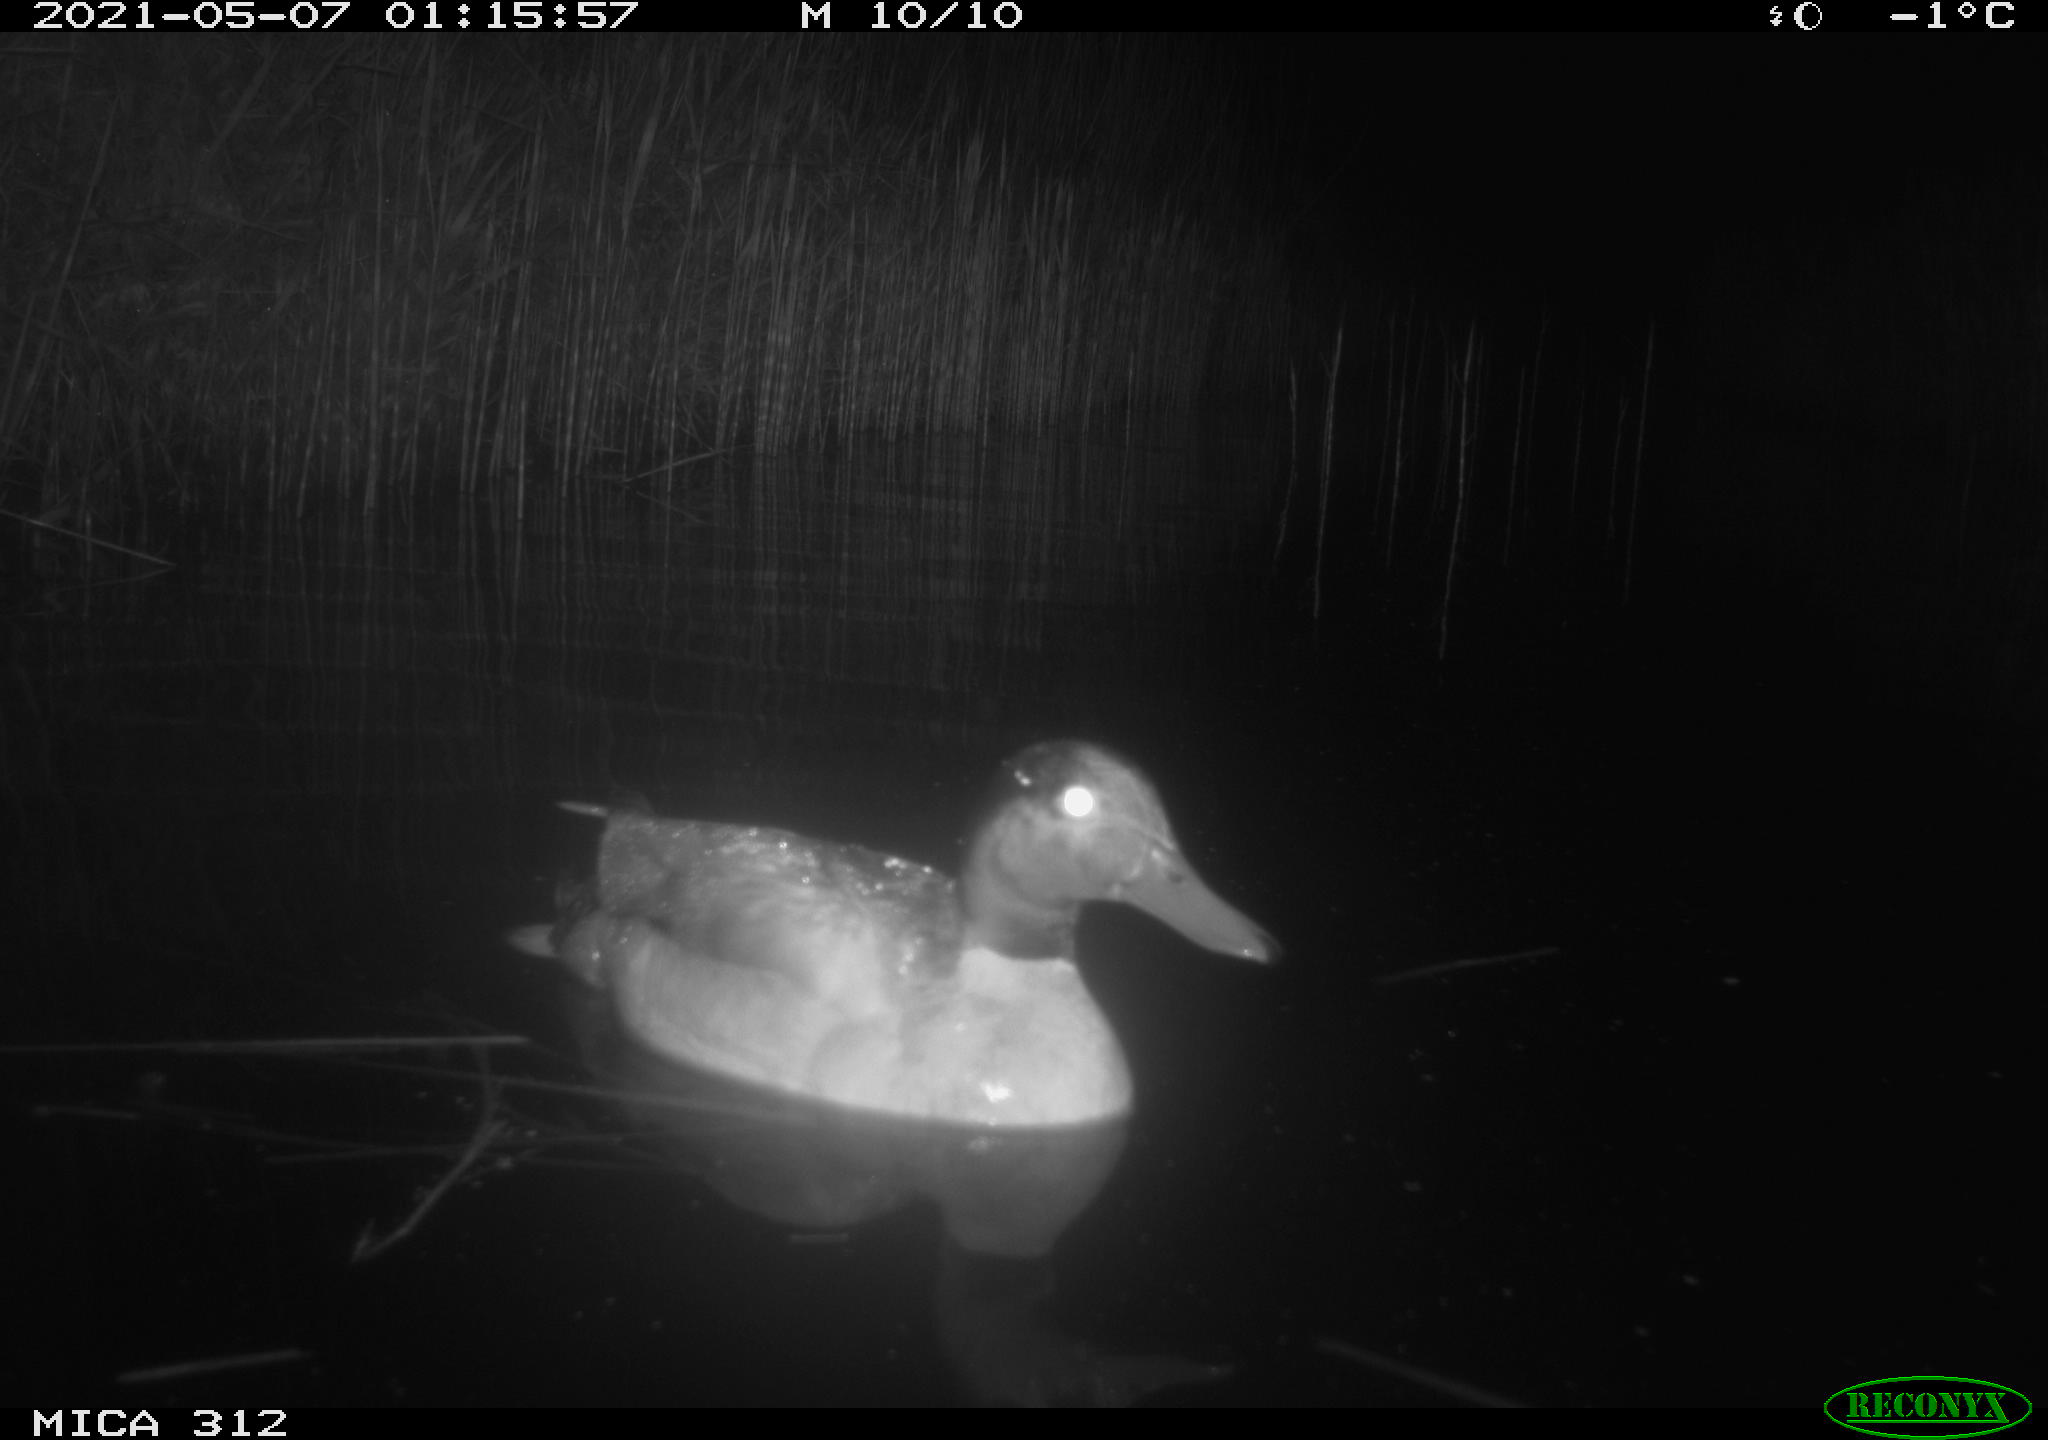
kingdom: Animalia
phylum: Chordata
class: Aves
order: Anseriformes
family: Anatidae
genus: Anas
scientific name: Anas platyrhynchos
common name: Mallard
